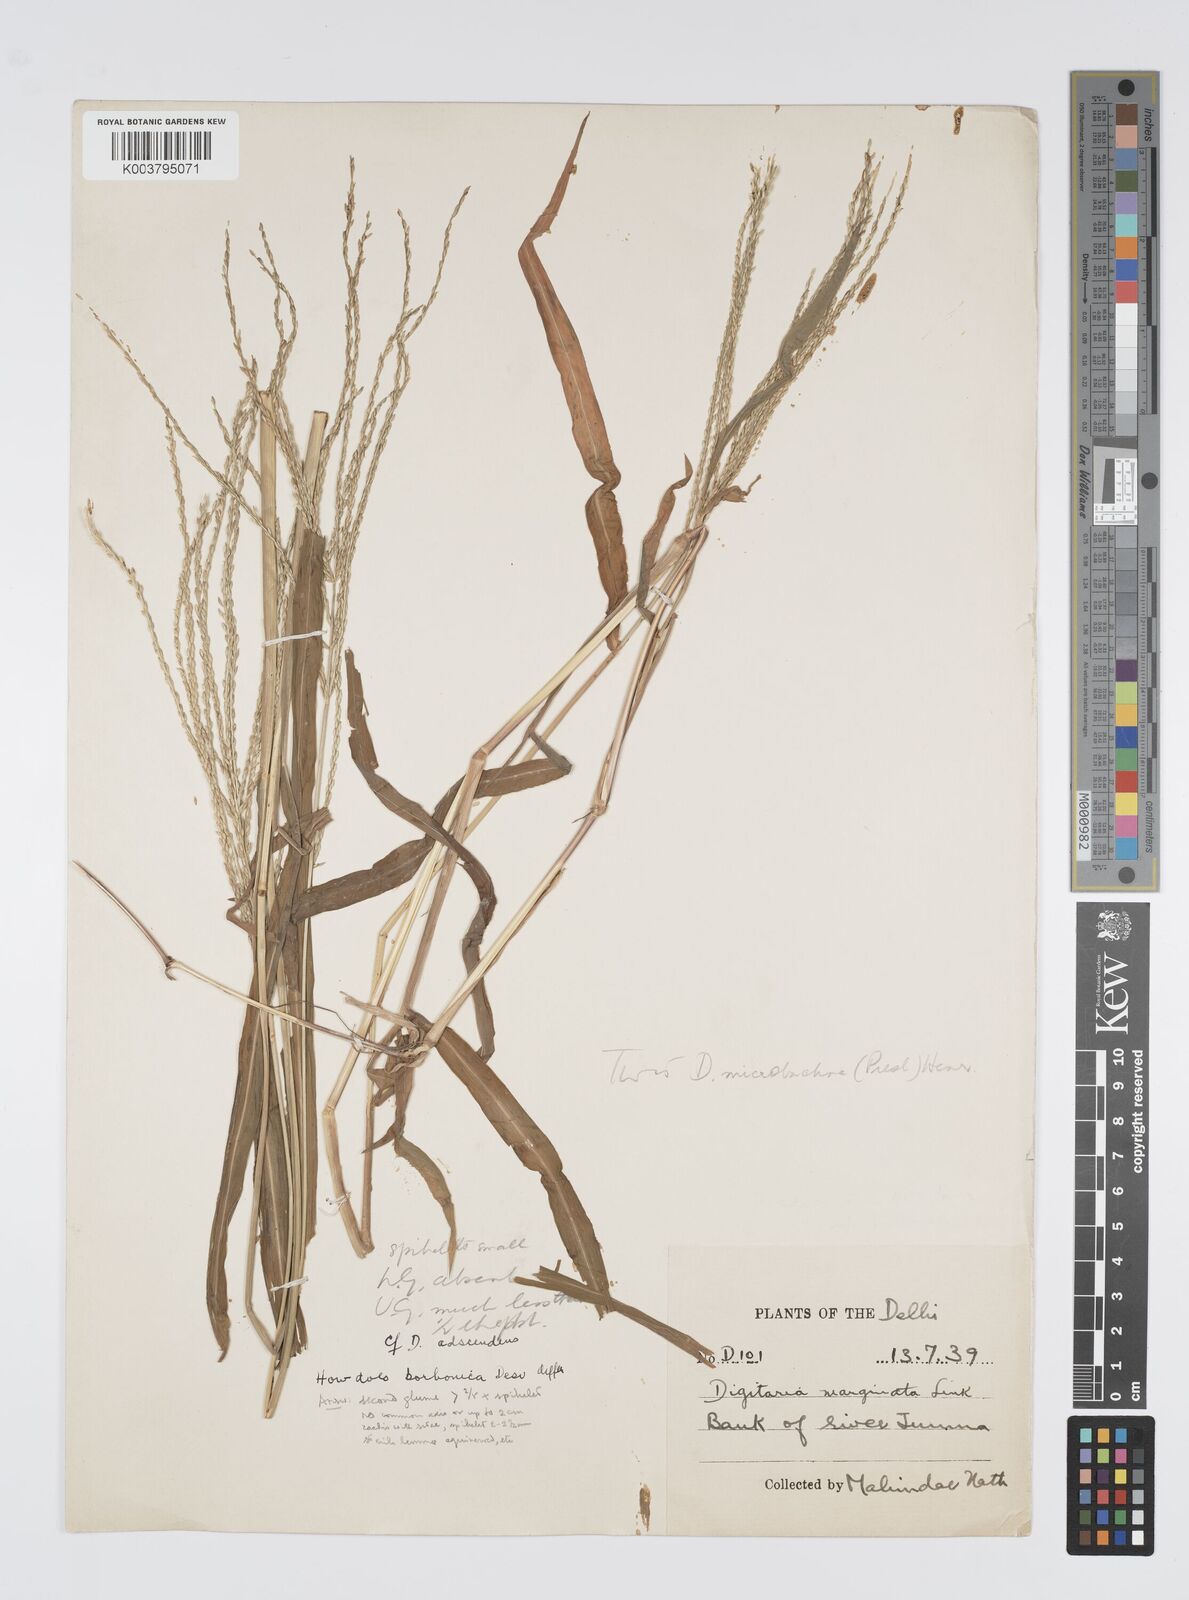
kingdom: Plantae
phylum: Tracheophyta
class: Liliopsida
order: Poales
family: Poaceae
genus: Digitaria
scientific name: Digitaria setigera
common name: East indian crabgrass
